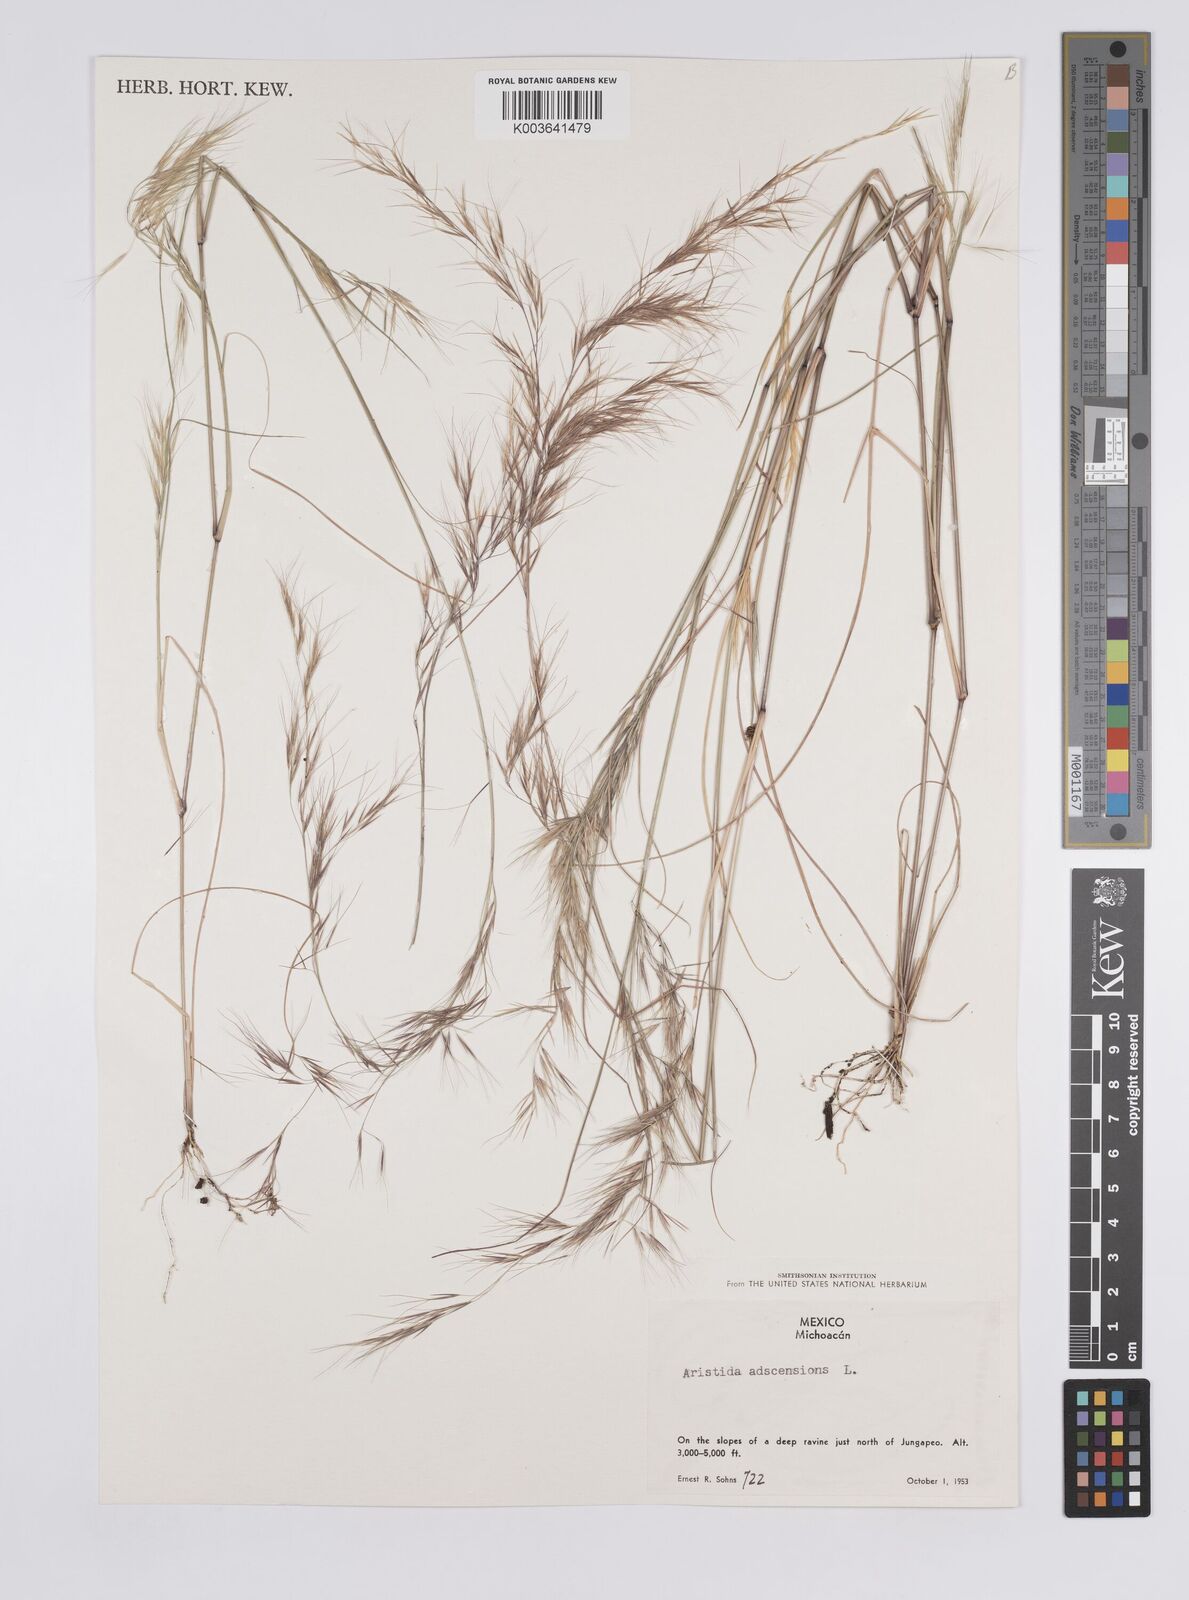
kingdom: Plantae
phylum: Tracheophyta
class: Liliopsida
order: Poales
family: Poaceae
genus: Aristida
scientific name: Aristida adscensionis
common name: Sixweeks threeawn
